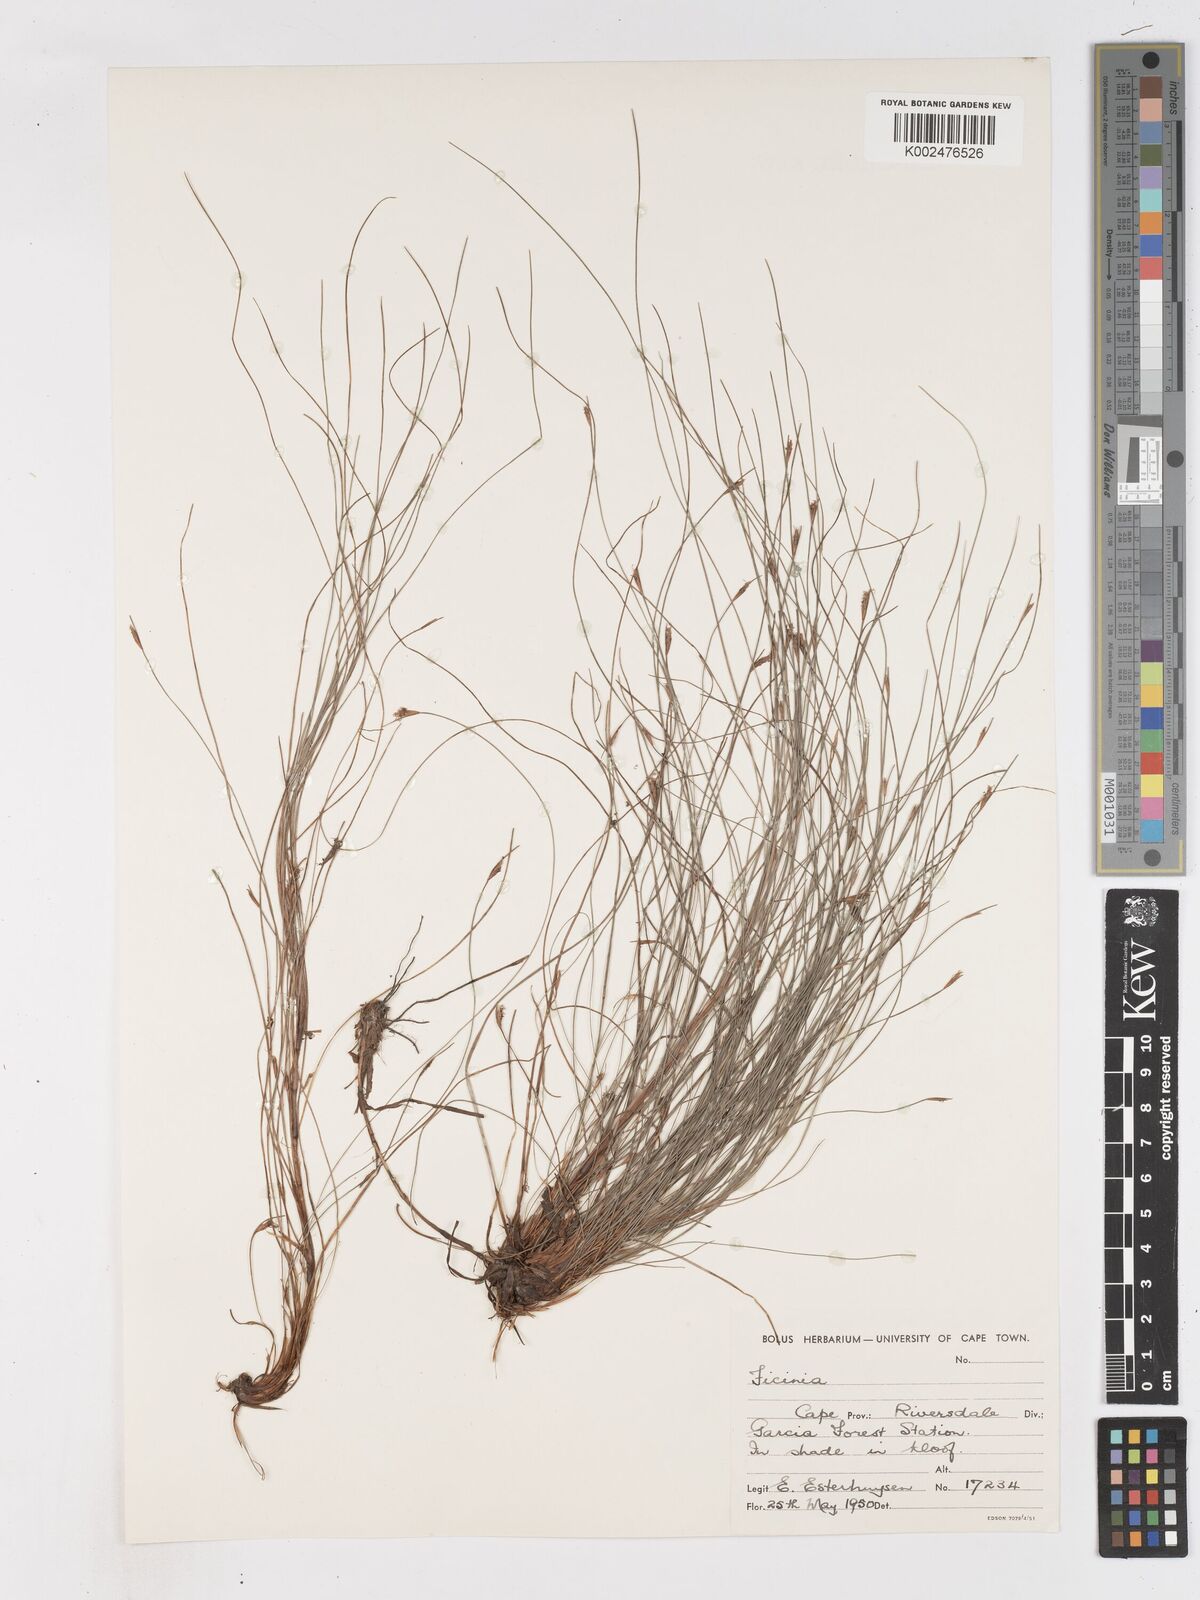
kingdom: Plantae
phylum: Tracheophyta
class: Liliopsida
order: Poales
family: Cyperaceae
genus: Ficinia
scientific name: Ficinia acuminata
